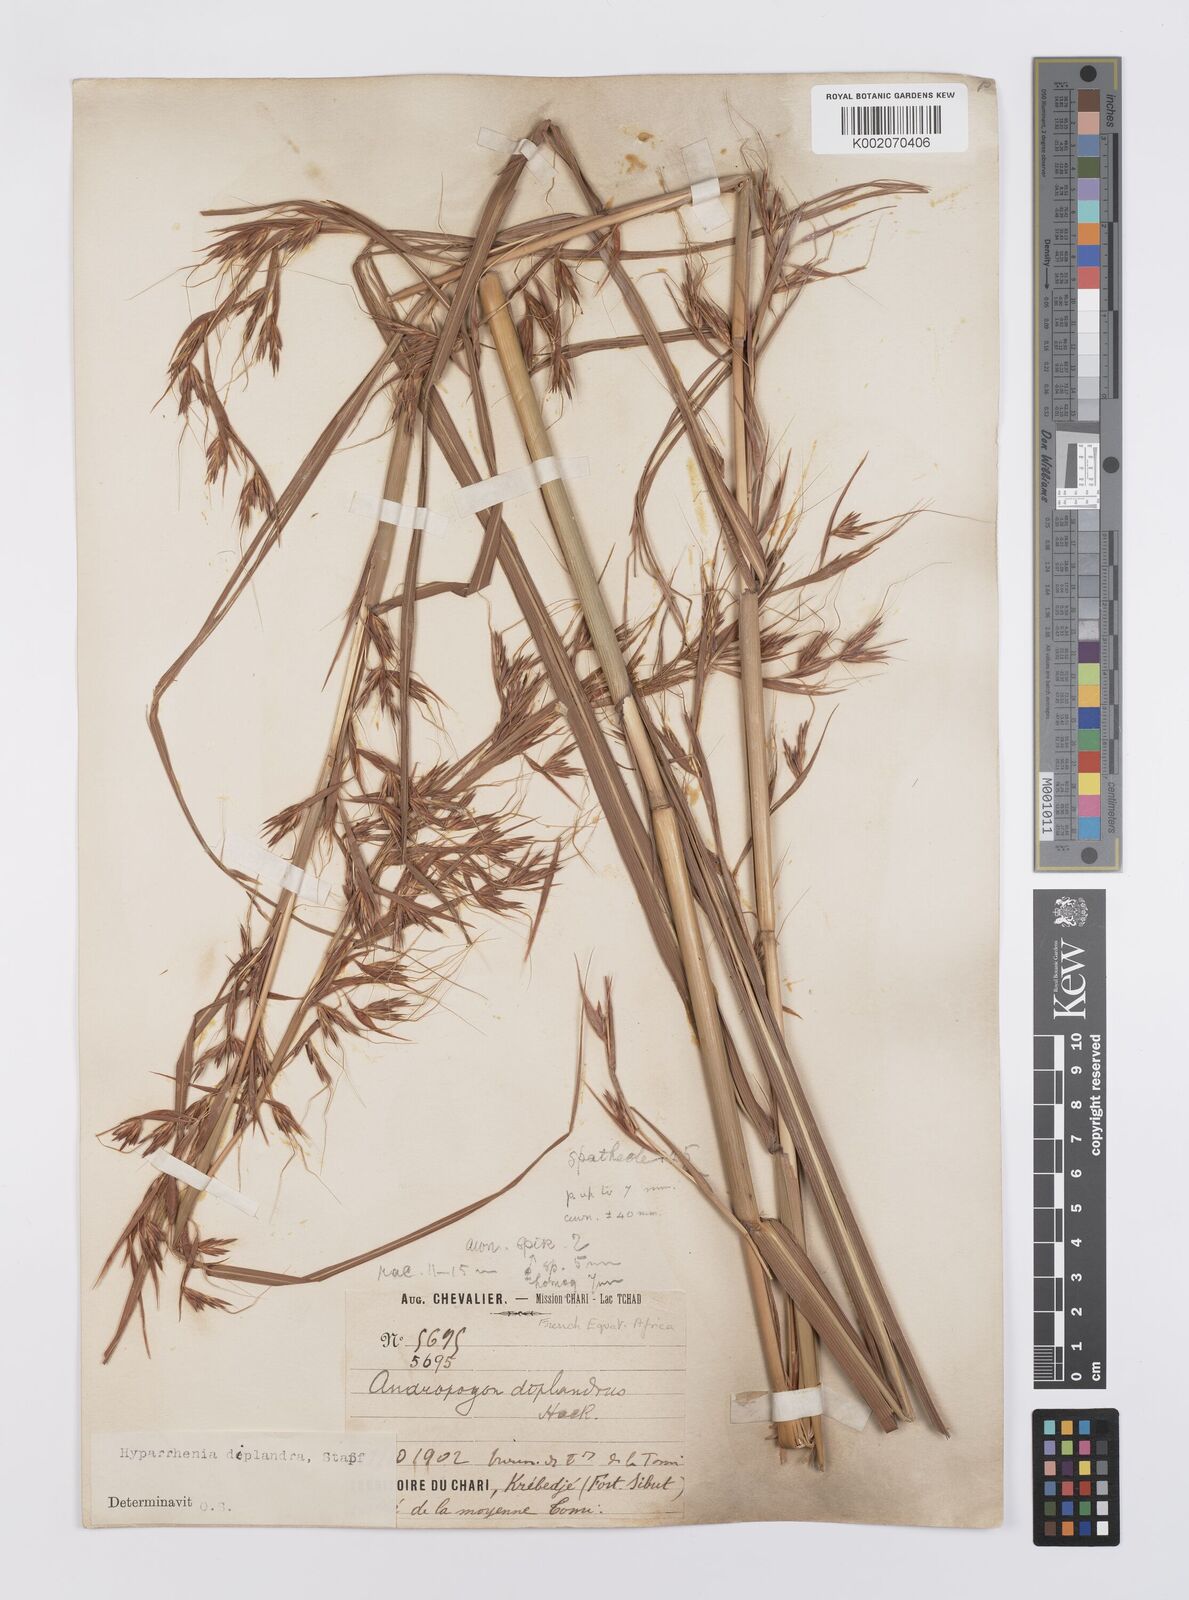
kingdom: Plantae
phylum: Tracheophyta
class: Liliopsida
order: Poales
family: Poaceae
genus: Hyparrhenia
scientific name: Hyparrhenia diplandra
